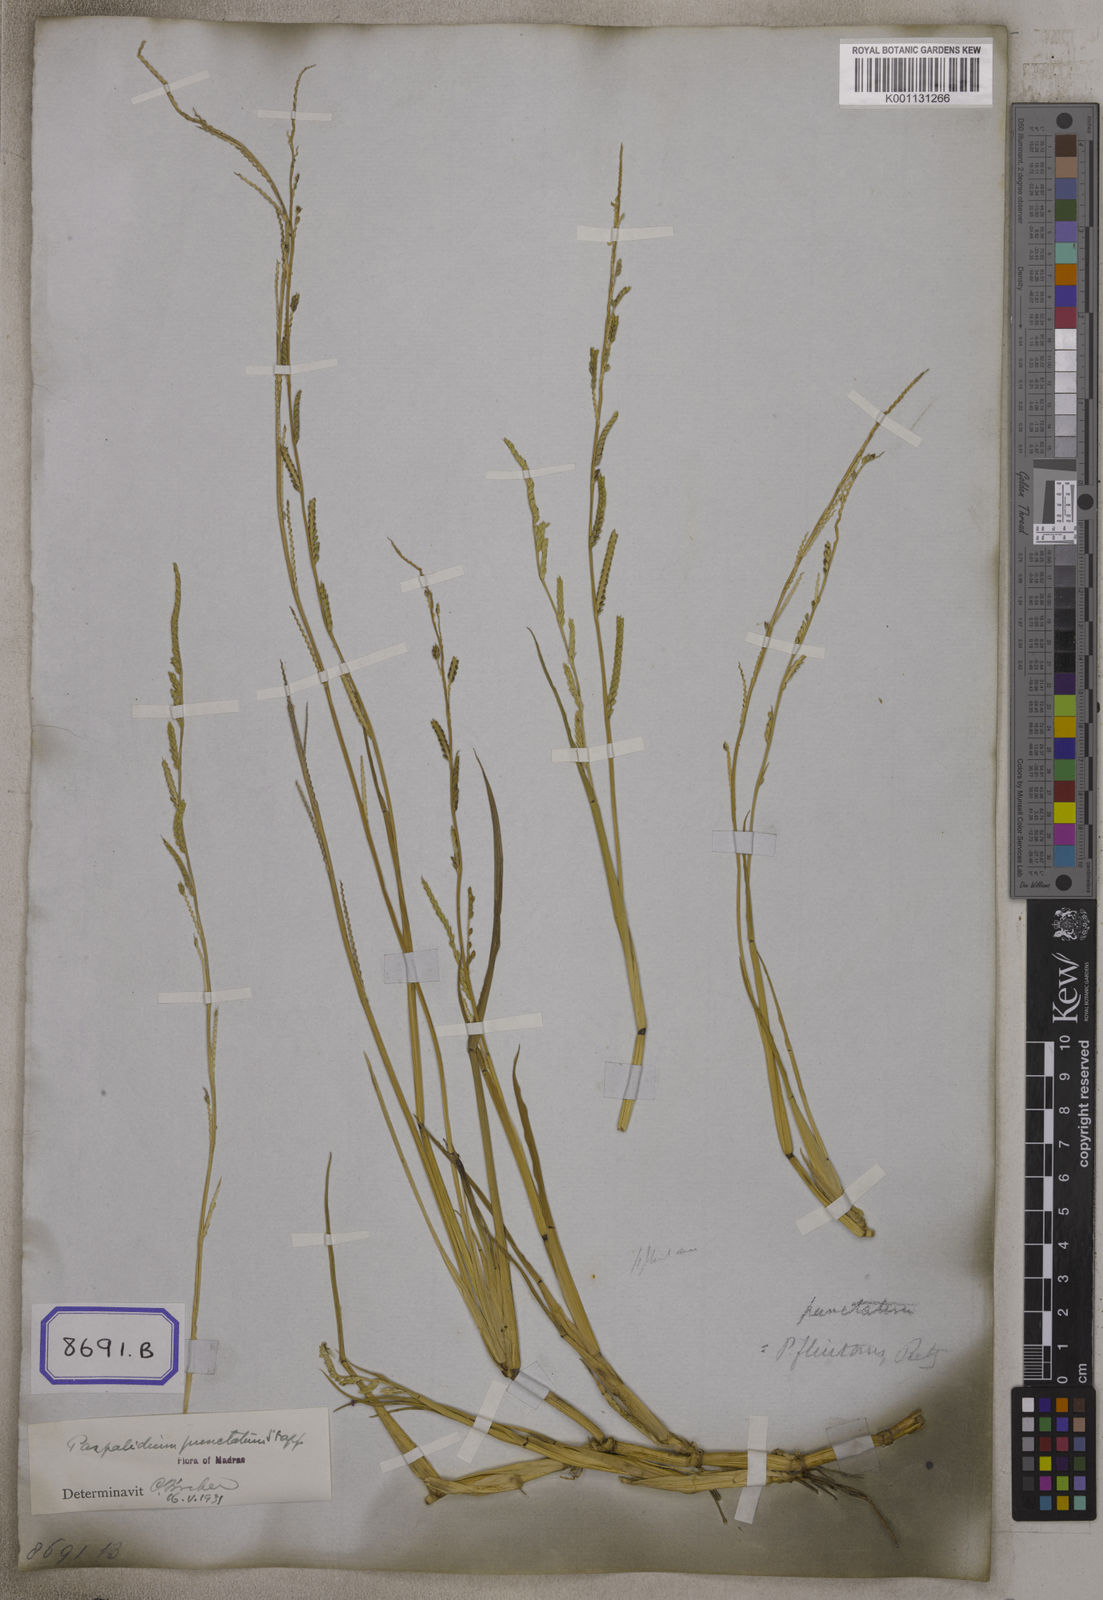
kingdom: Plantae
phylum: Tracheophyta
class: Liliopsida
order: Poales
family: Poaceae
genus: Setaria
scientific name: Setaria geminata
